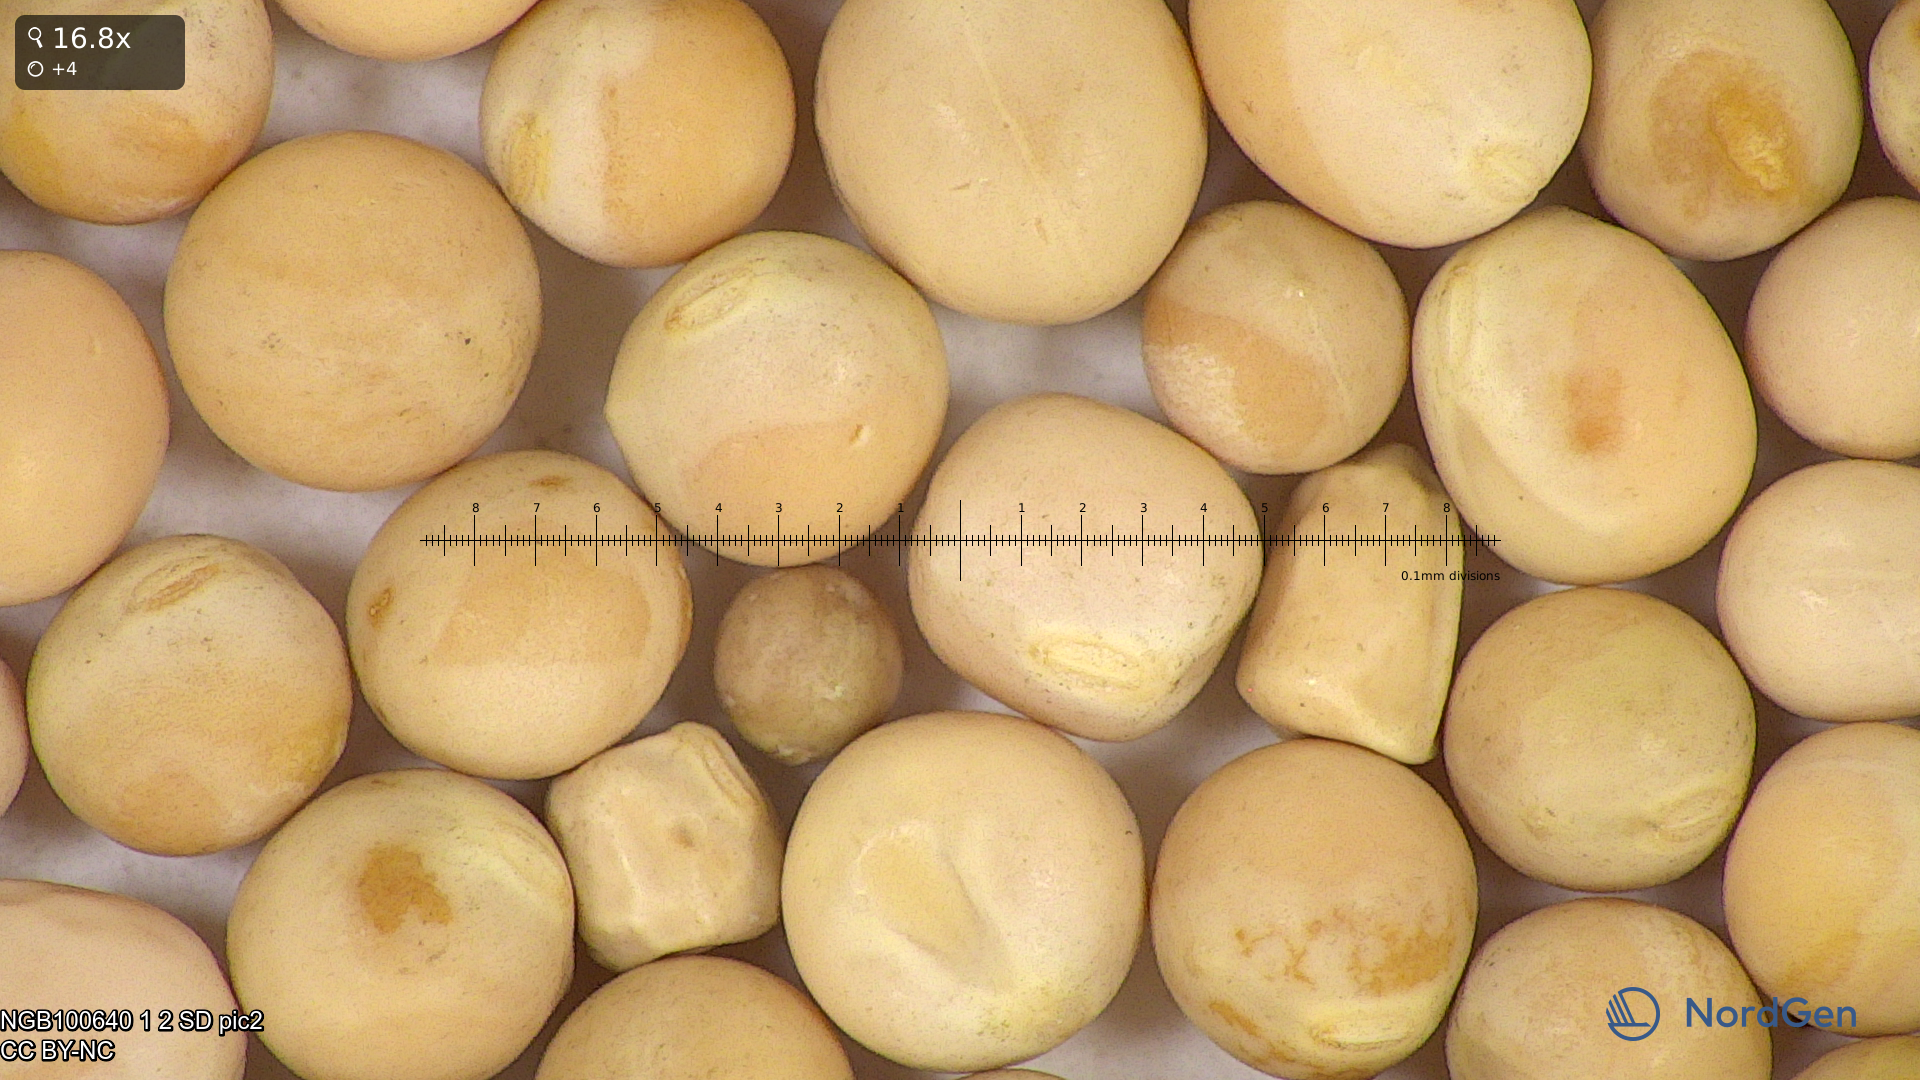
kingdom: Plantae
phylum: Tracheophyta
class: Magnoliopsida
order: Fabales
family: Fabaceae
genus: Lathyrus
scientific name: Lathyrus oleraceus
